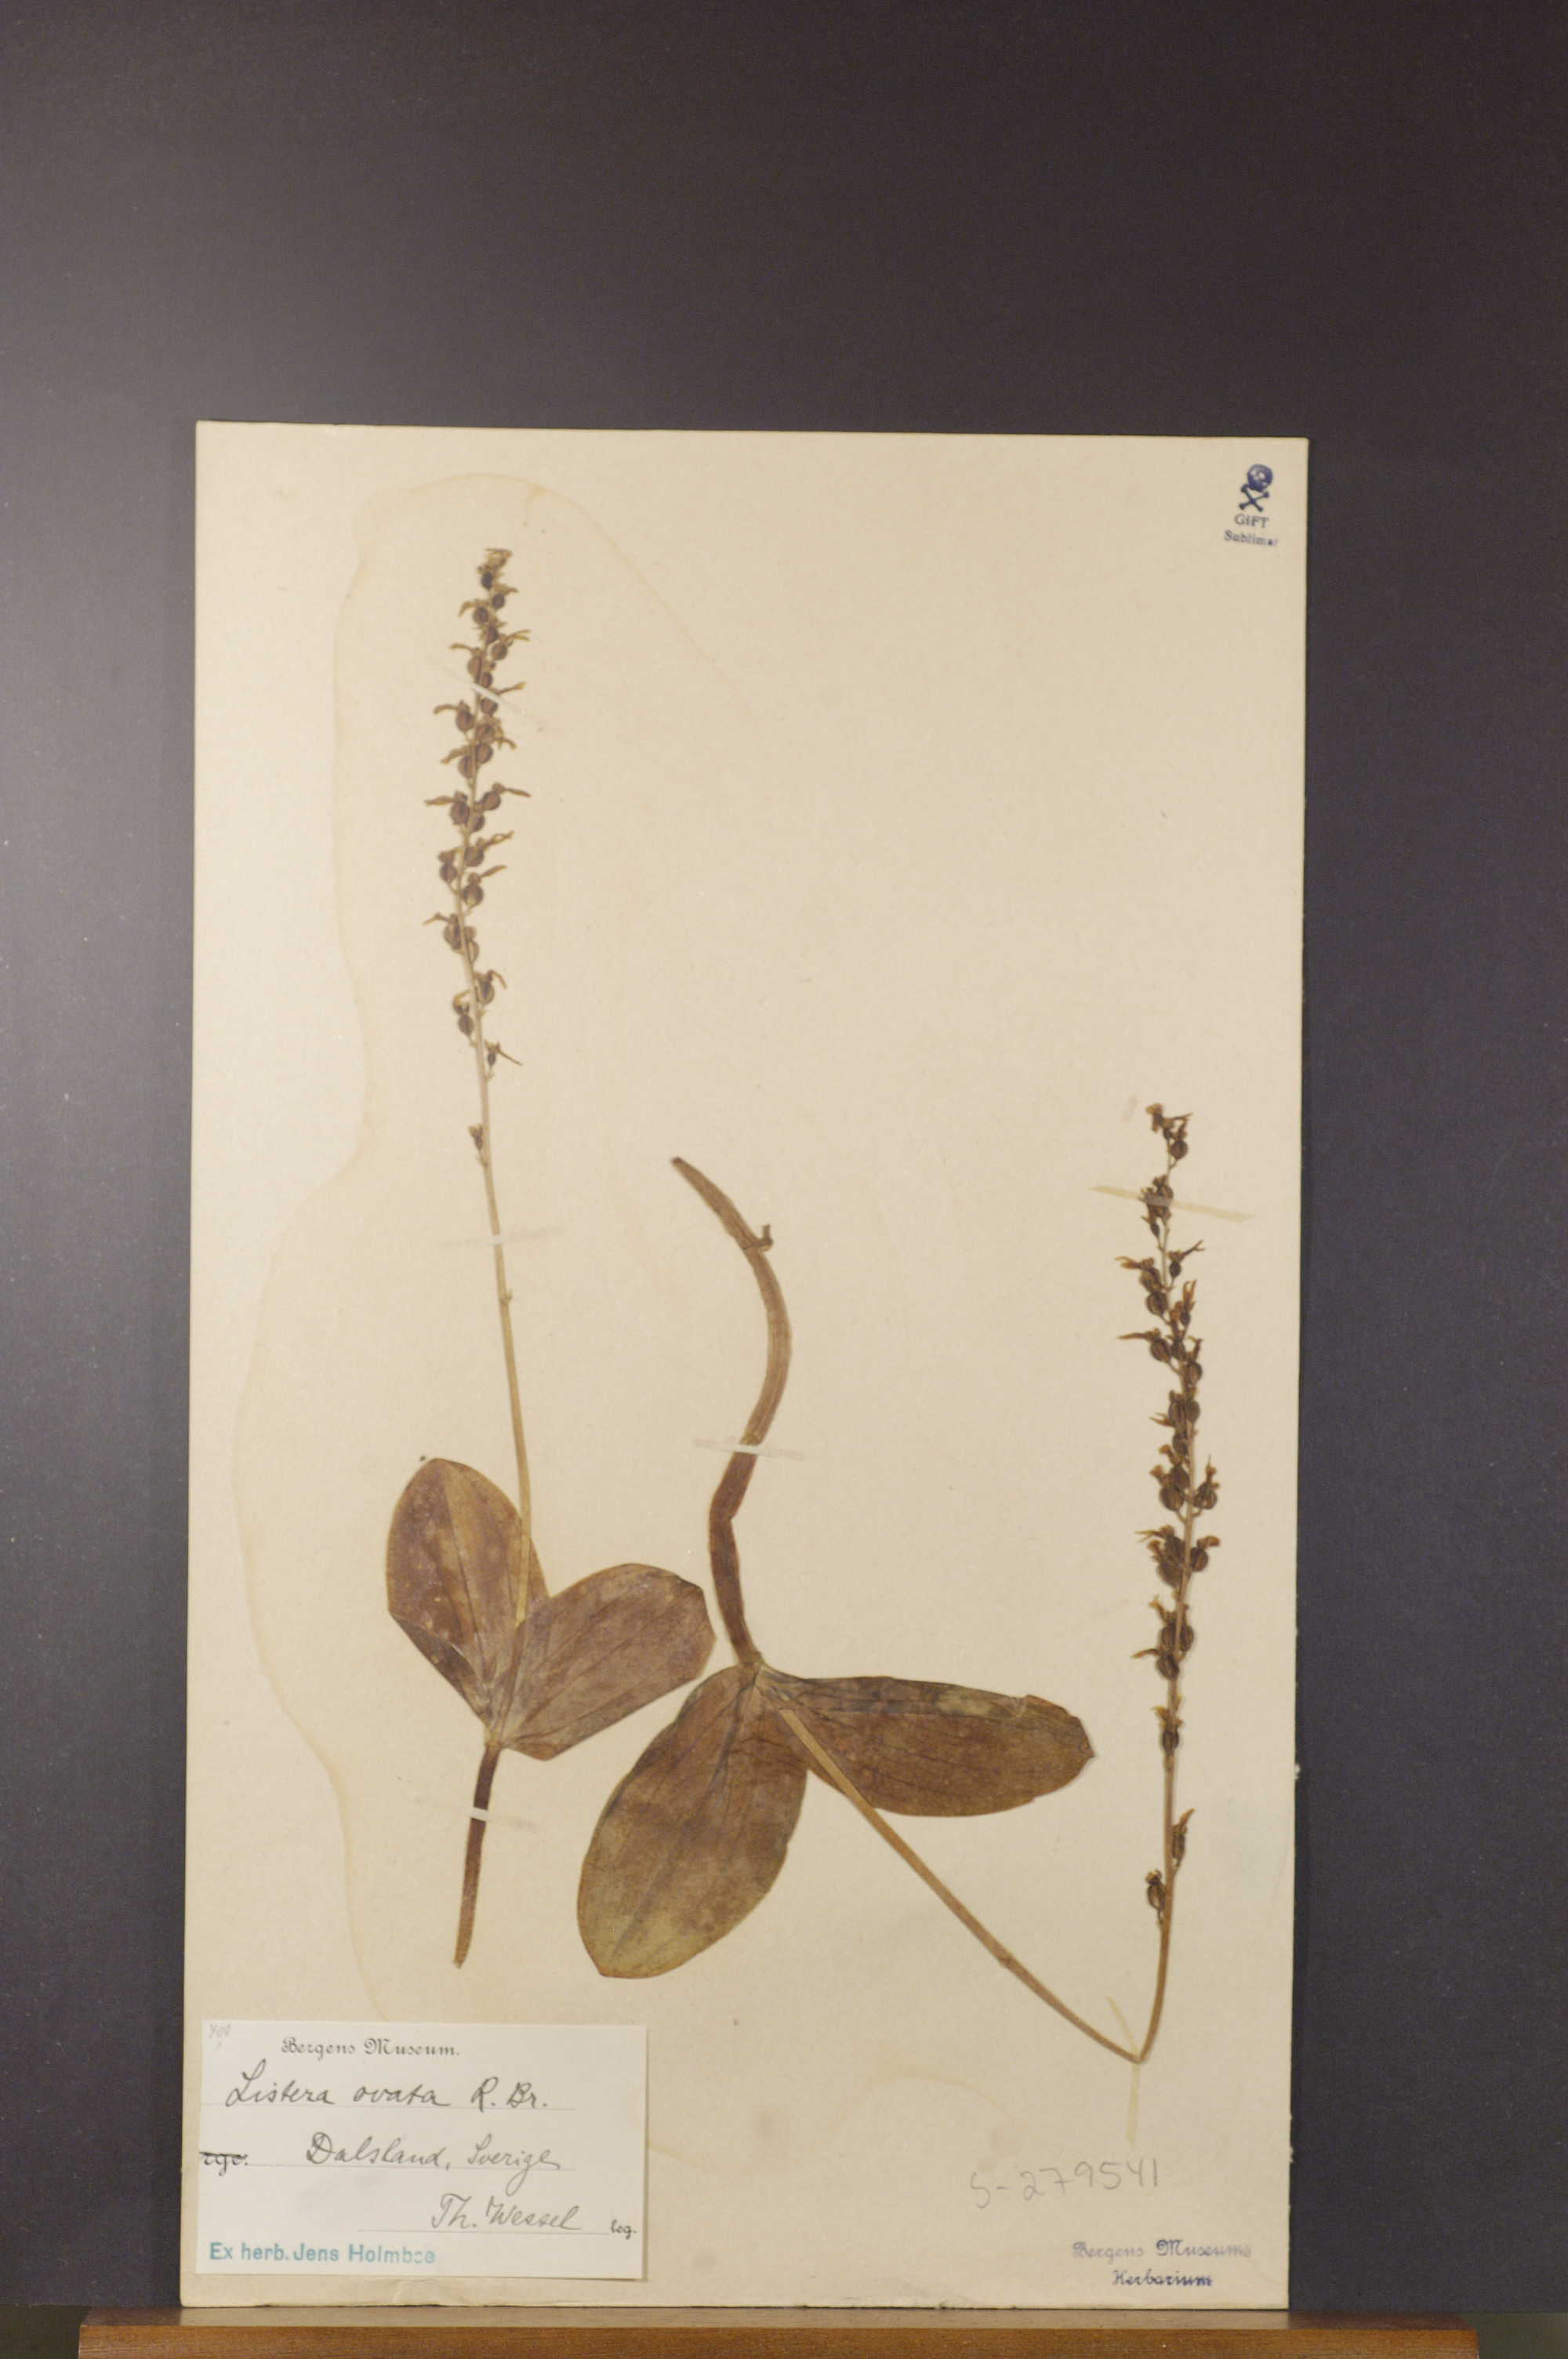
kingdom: Plantae
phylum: Tracheophyta
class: Liliopsida
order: Asparagales
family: Orchidaceae
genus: Neottia
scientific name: Neottia ovata
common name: Common twayblade
